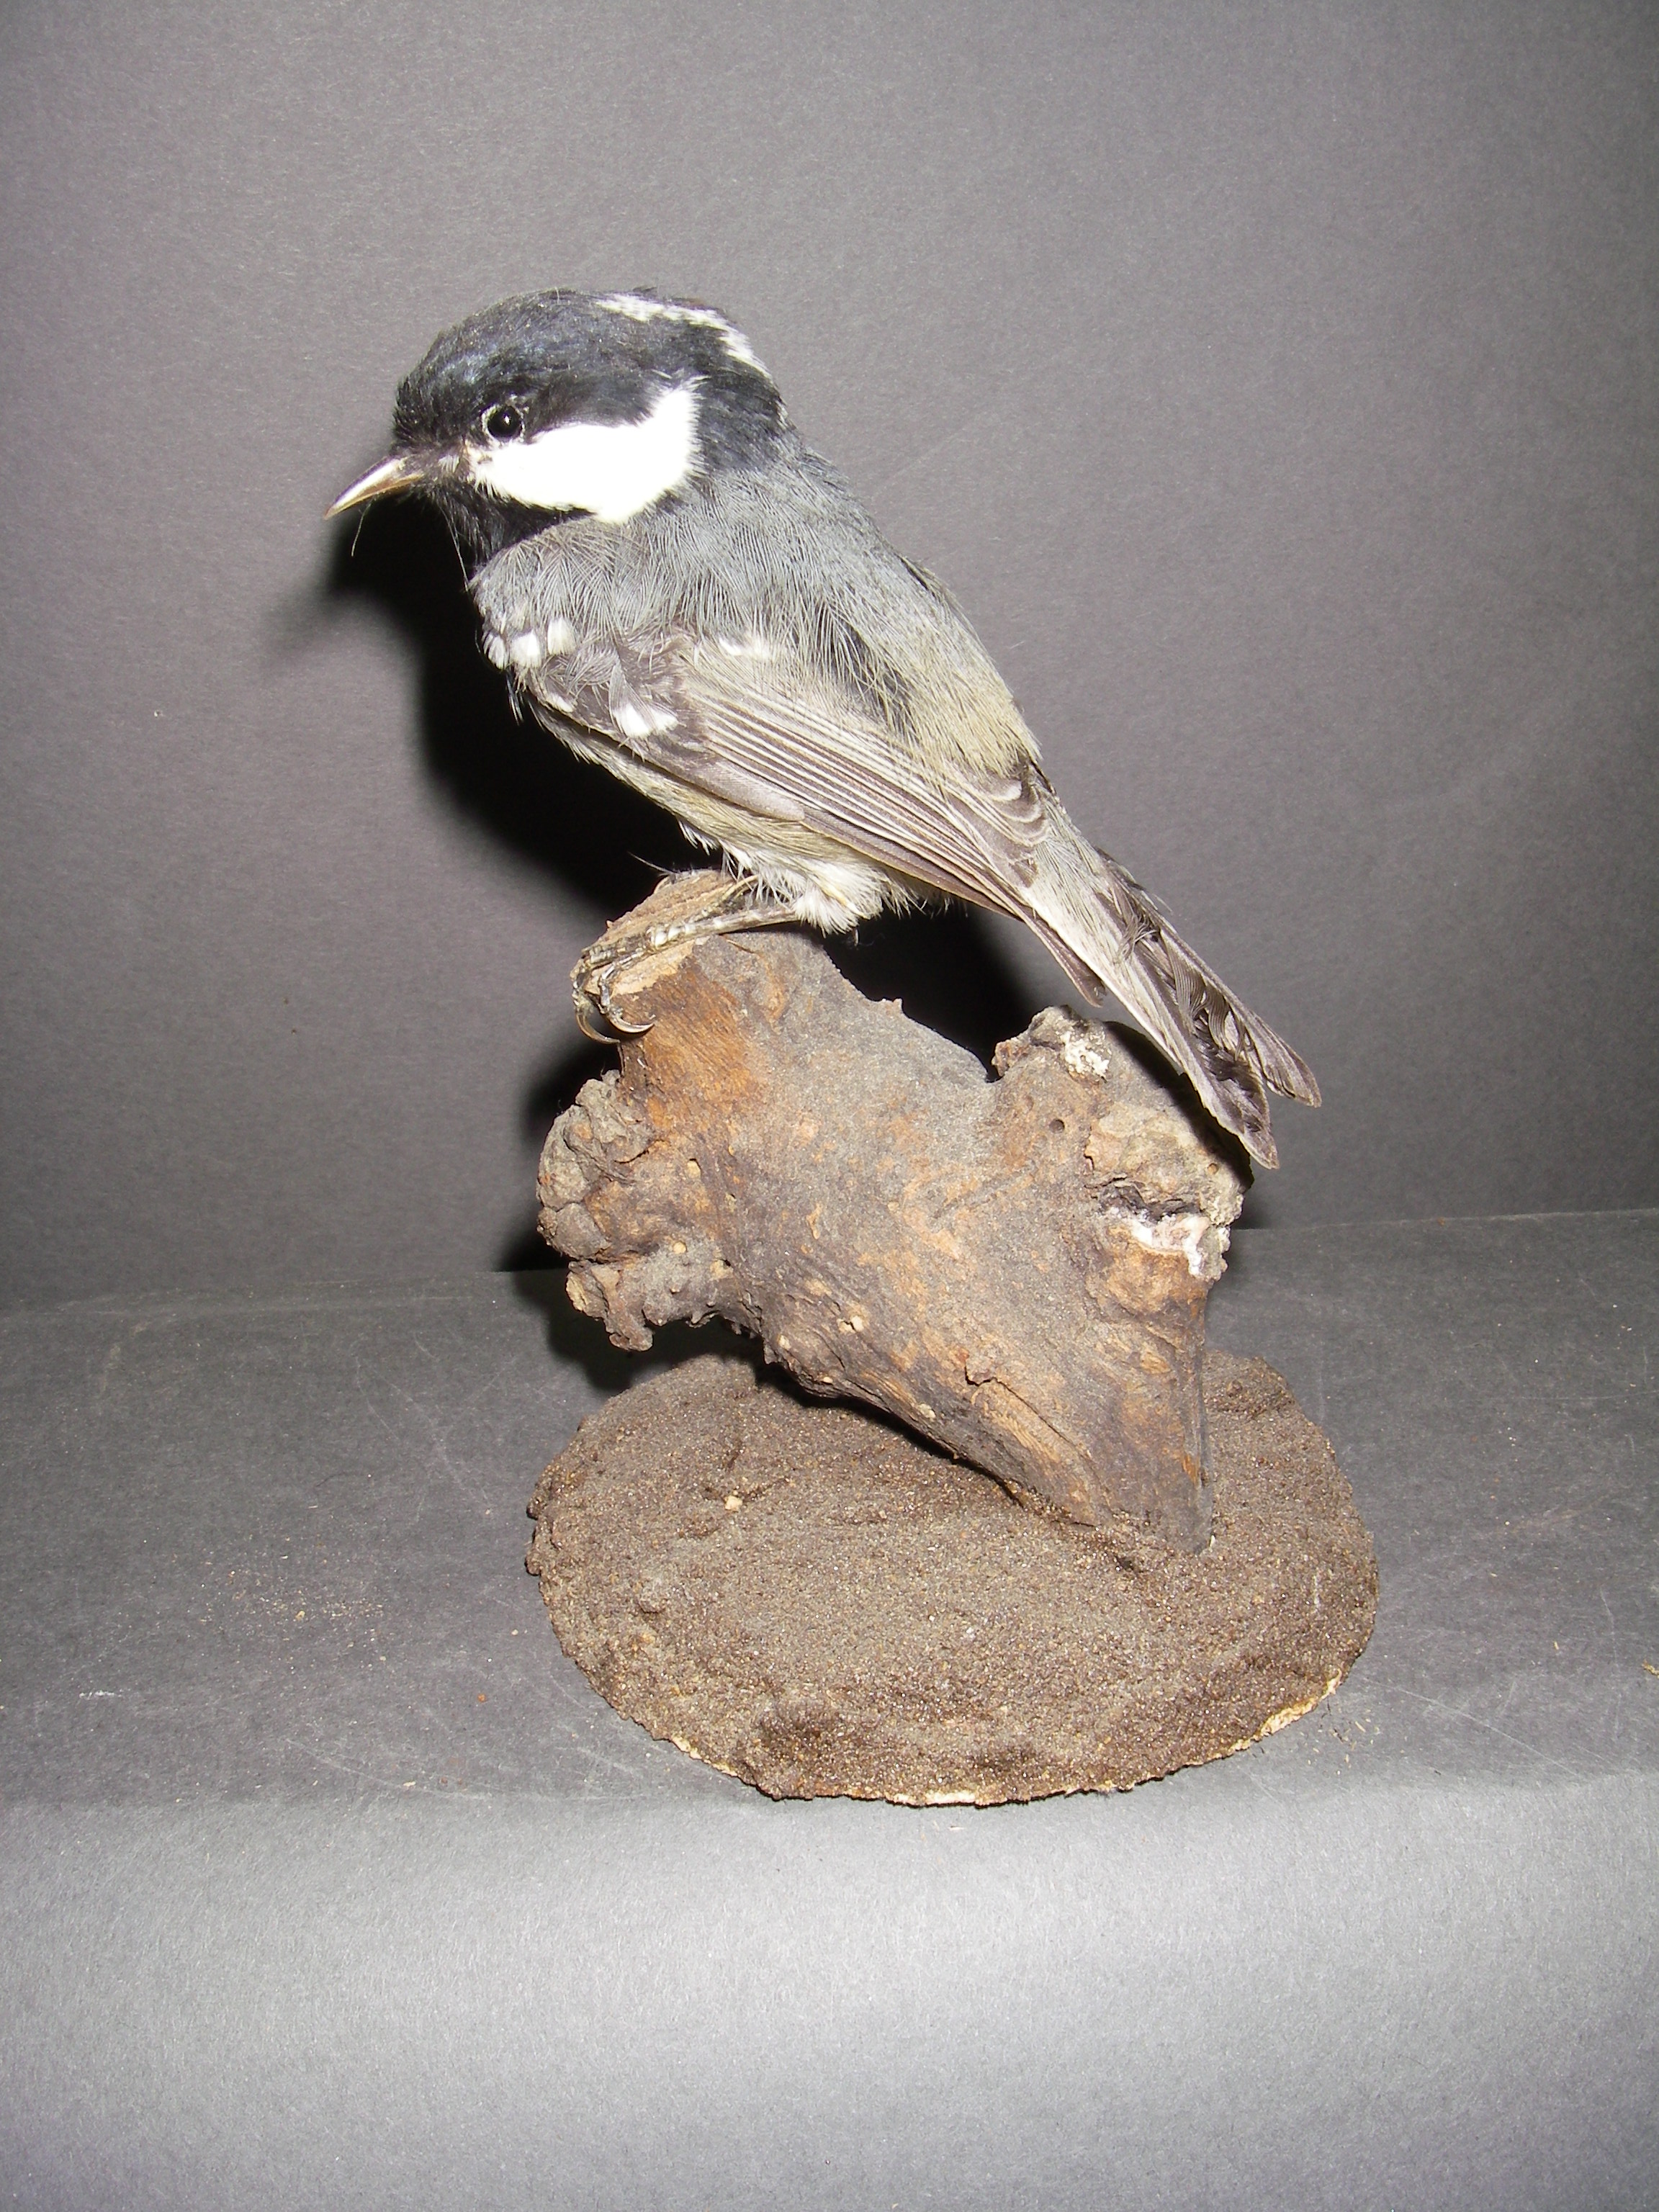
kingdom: Animalia
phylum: Chordata
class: Aves
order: Passeriformes
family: Paridae
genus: Periparus
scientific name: Periparus ater
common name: Coal tit
